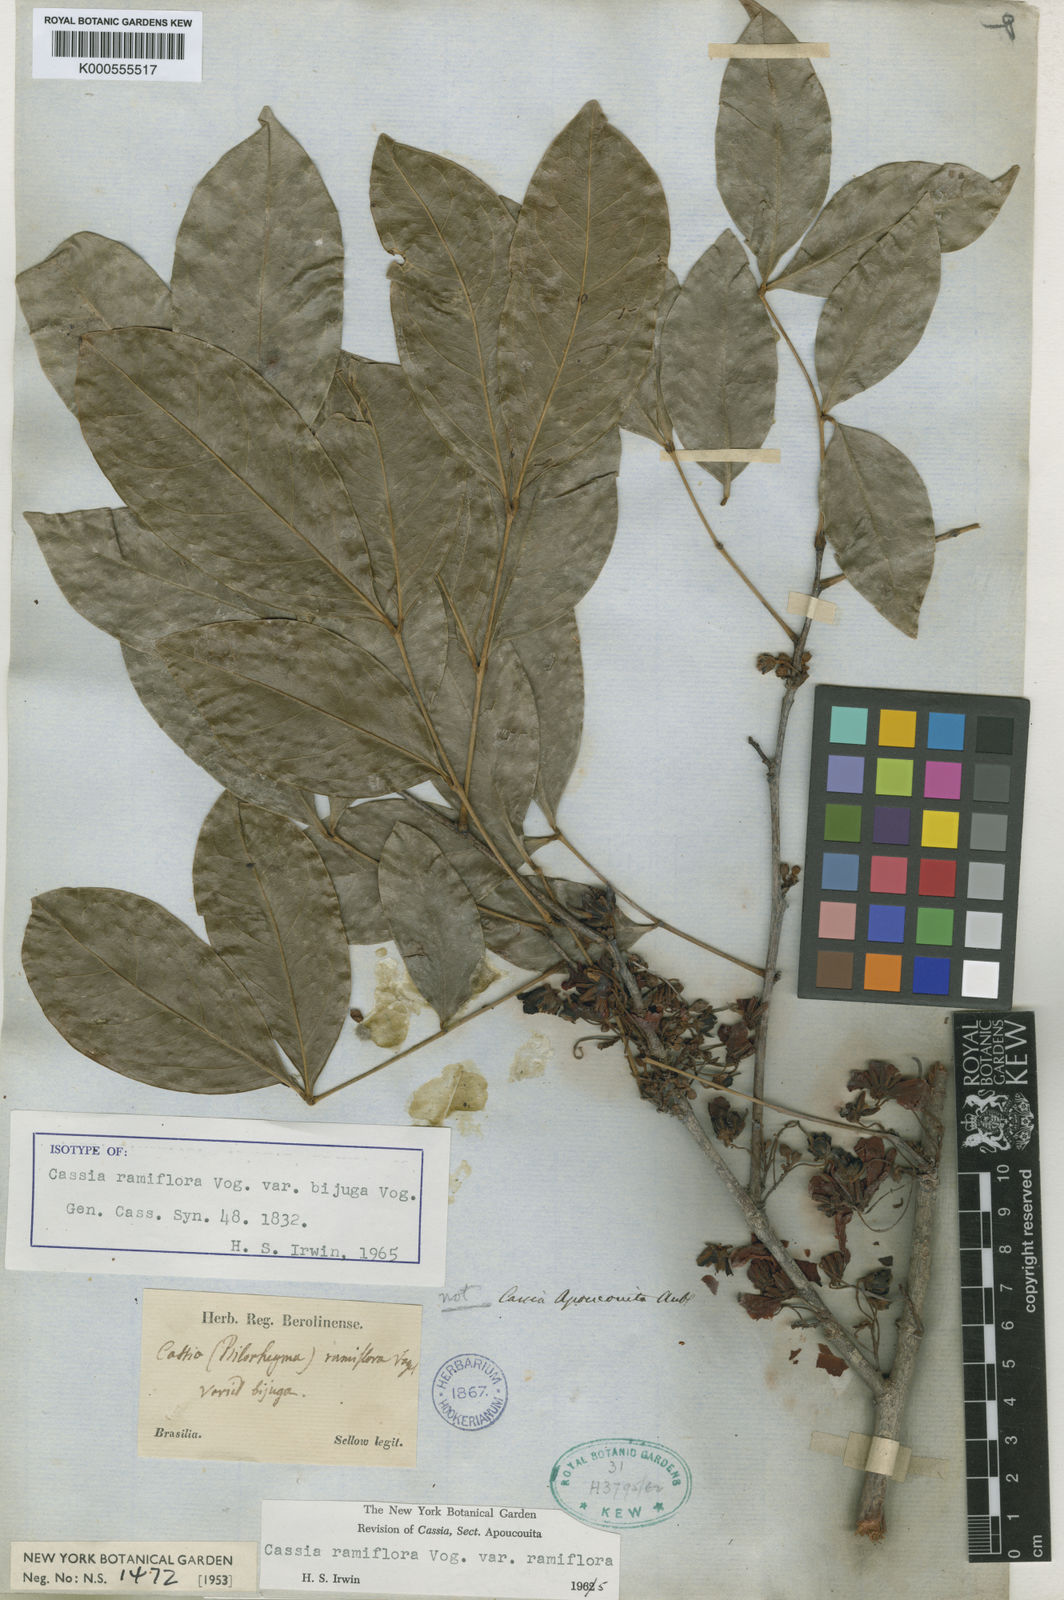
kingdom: Plantae
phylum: Tracheophyta
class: Magnoliopsida
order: Fabales
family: Fabaceae
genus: Chamaecrista
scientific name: Chamaecrista ensiformis
